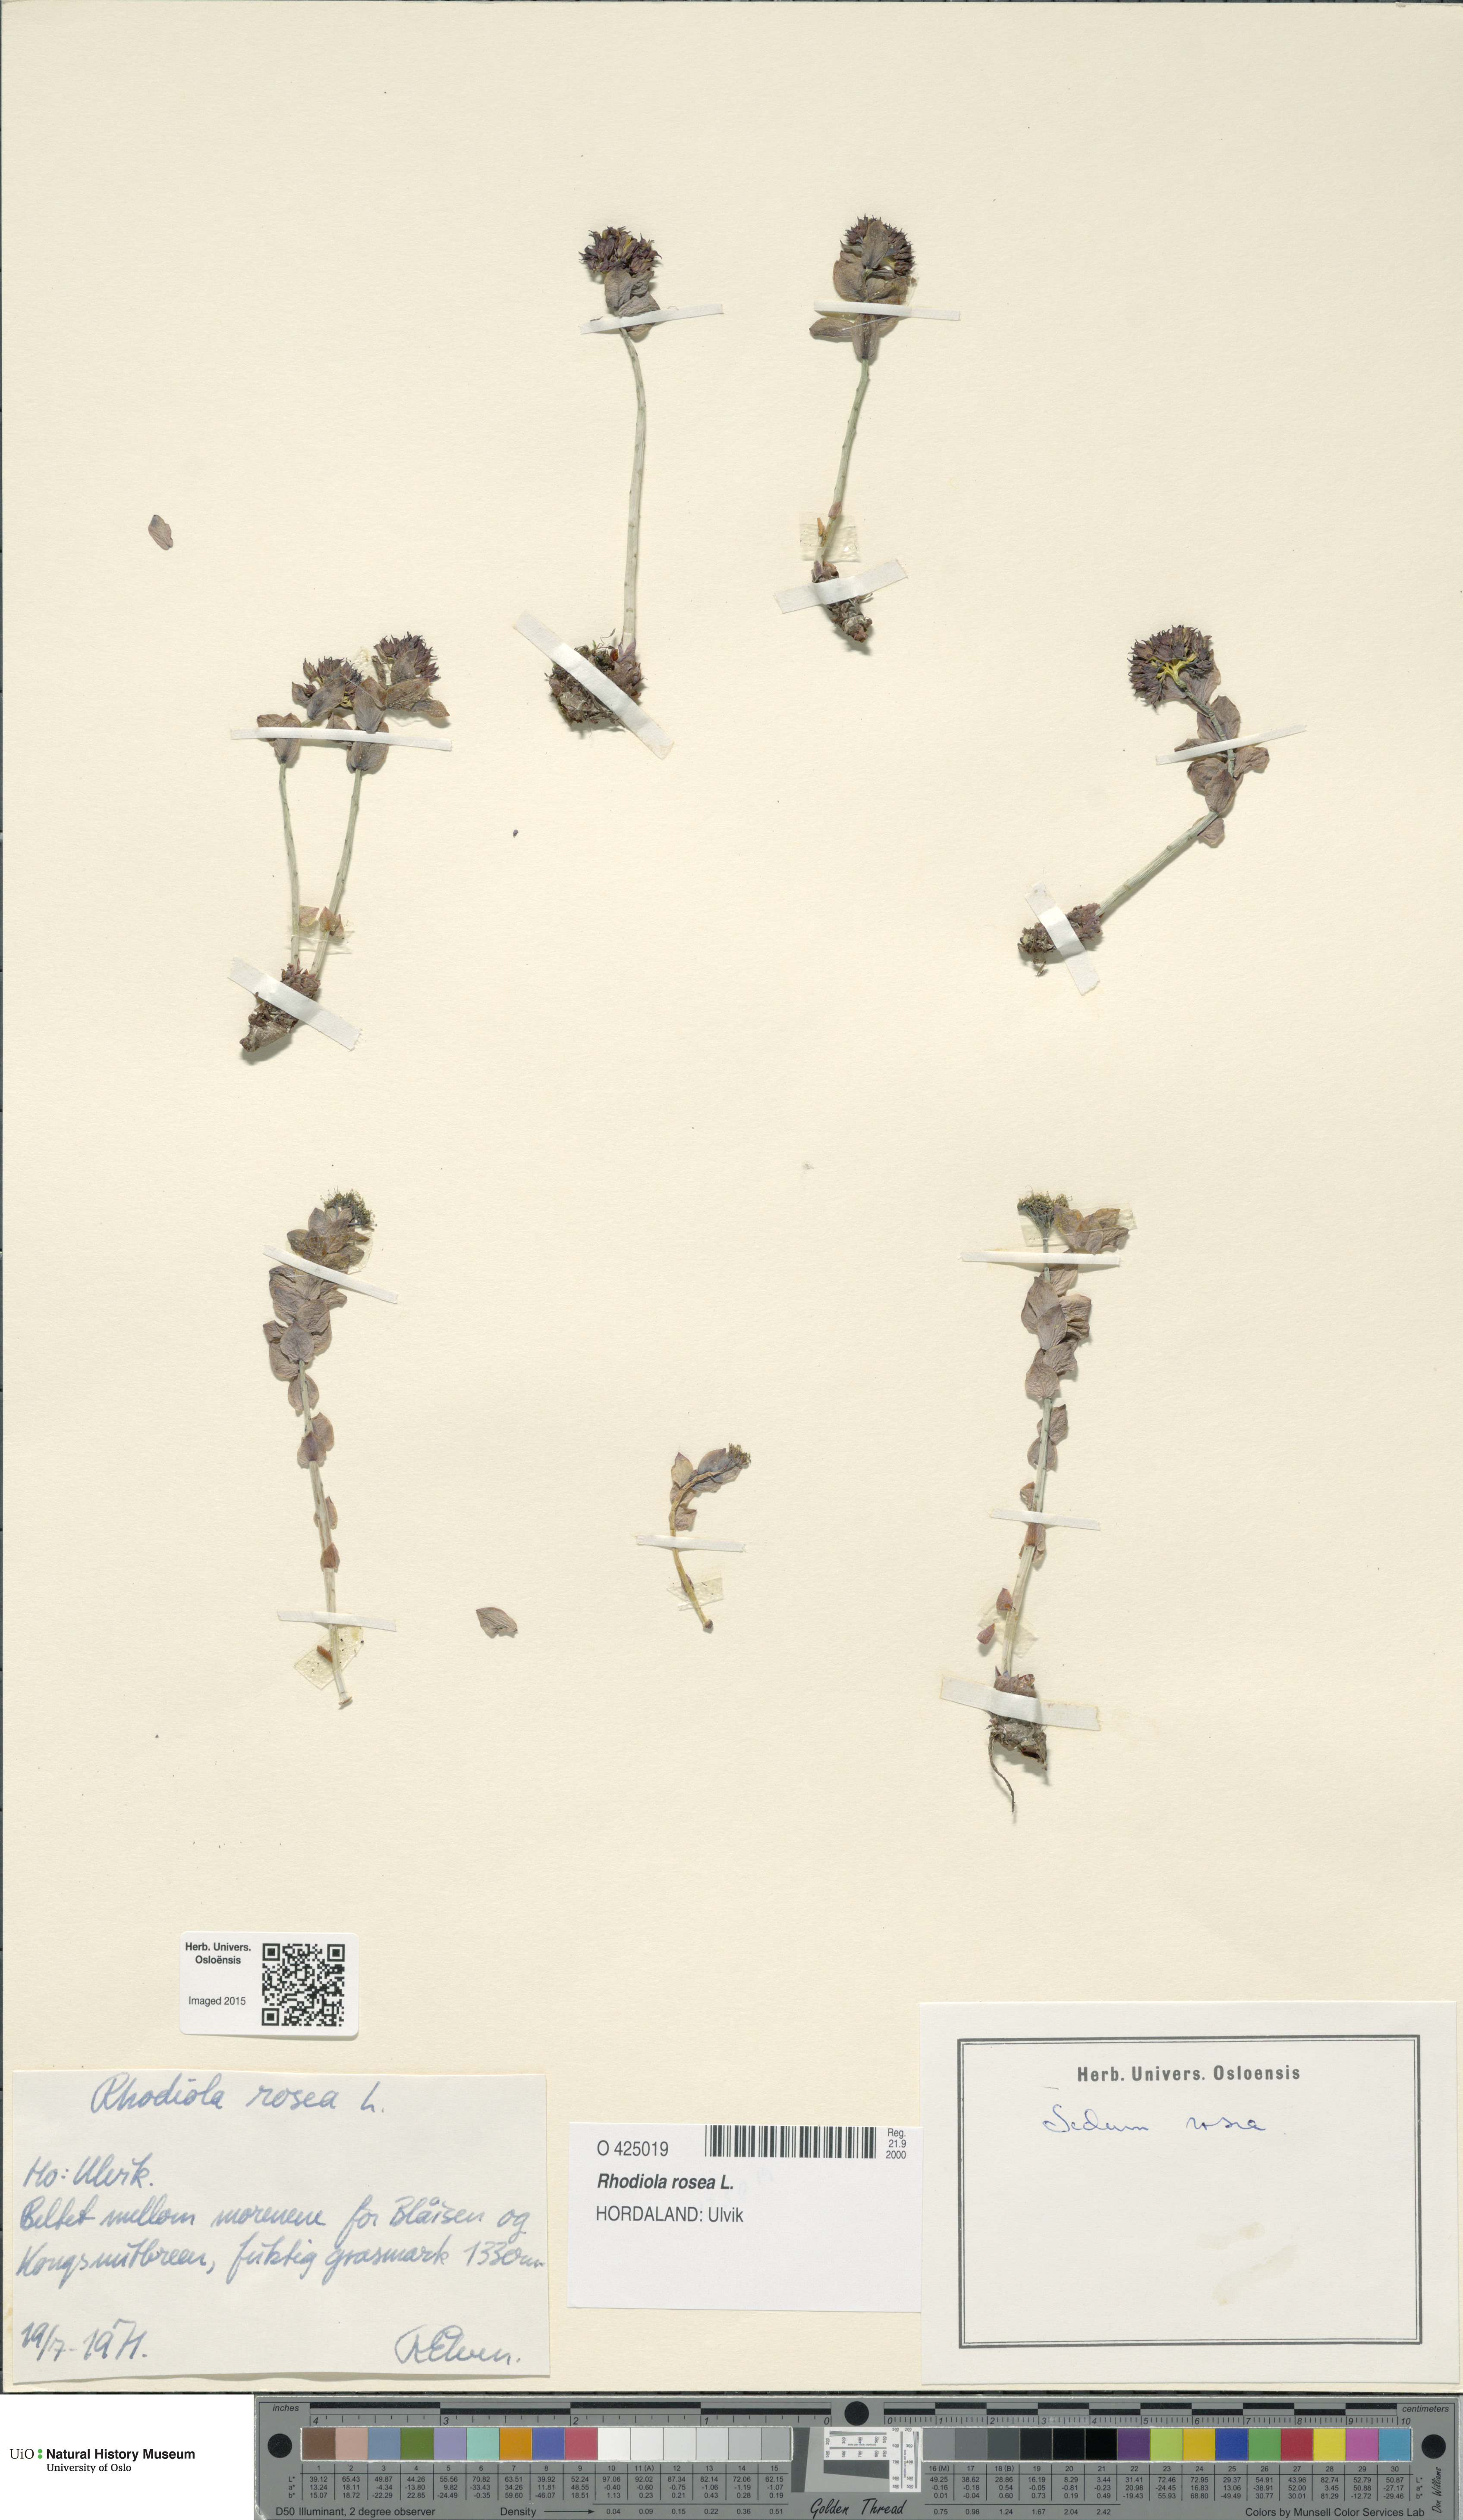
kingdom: Plantae
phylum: Tracheophyta
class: Magnoliopsida
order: Saxifragales
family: Crassulaceae
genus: Rhodiola
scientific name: Rhodiola rosea
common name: Roseroot
